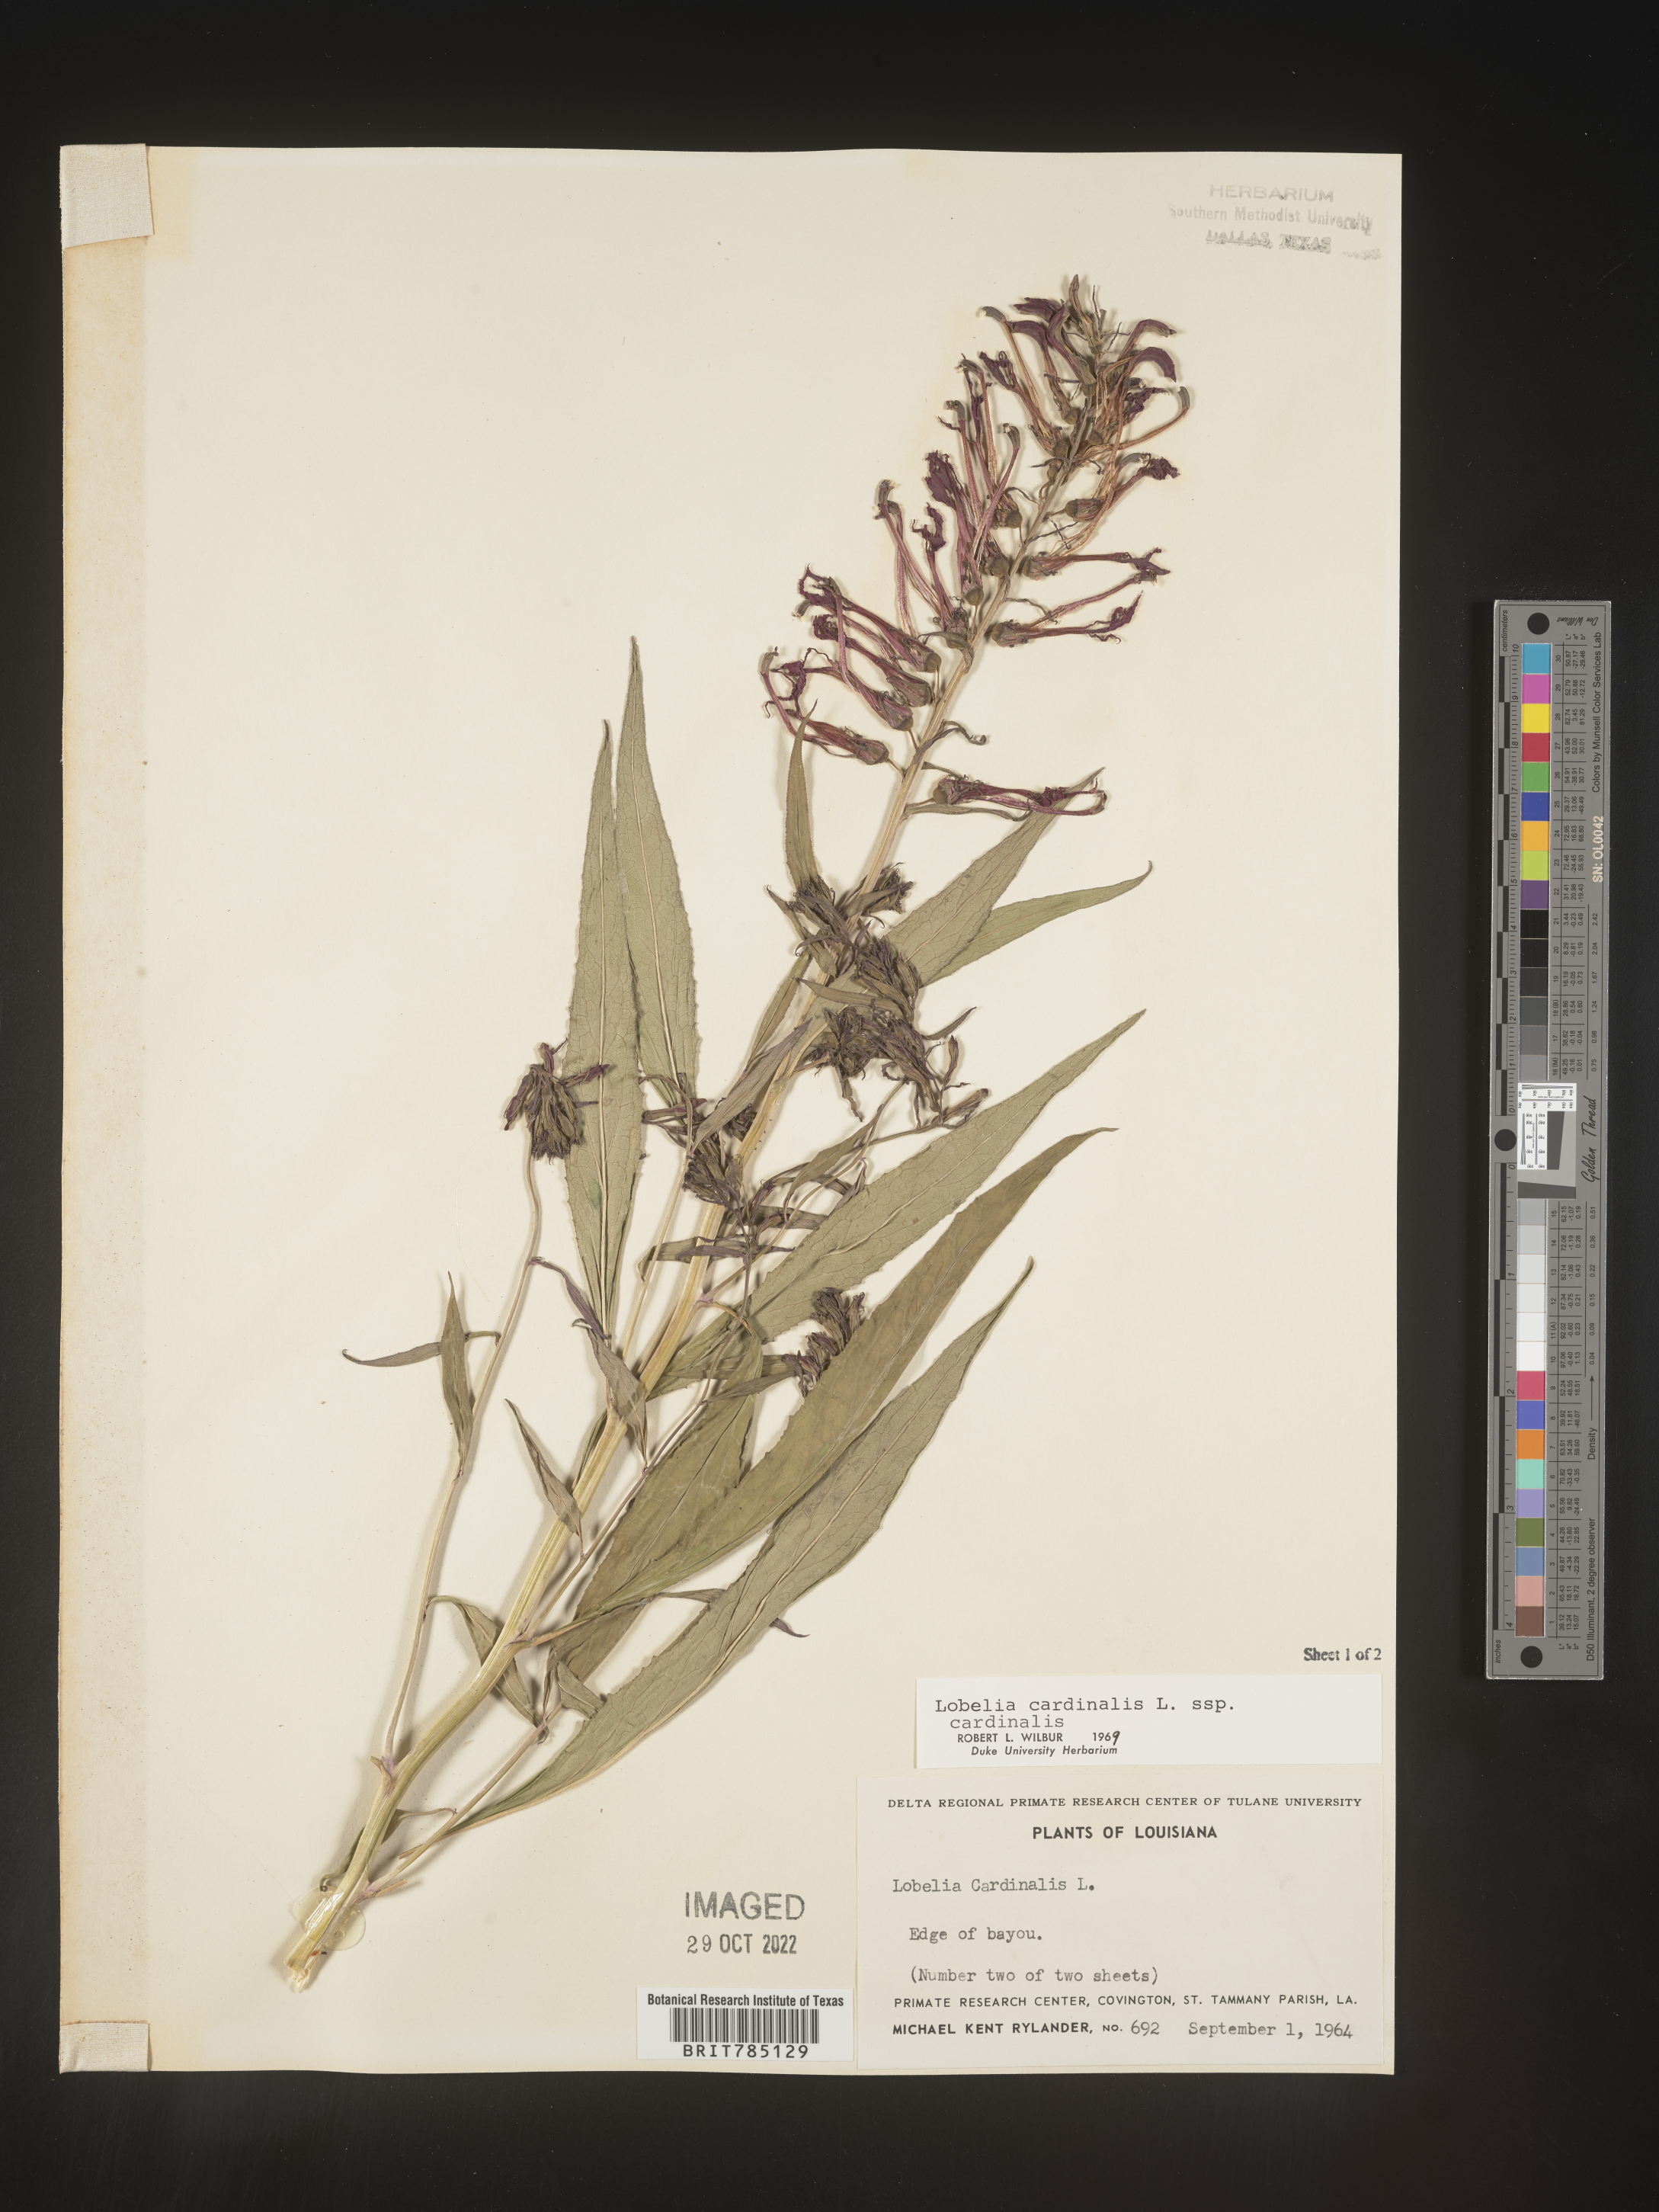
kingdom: Plantae
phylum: Tracheophyta
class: Magnoliopsida
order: Asterales
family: Campanulaceae
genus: Lobelia
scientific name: Lobelia cardinalis
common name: Cardinal flower
